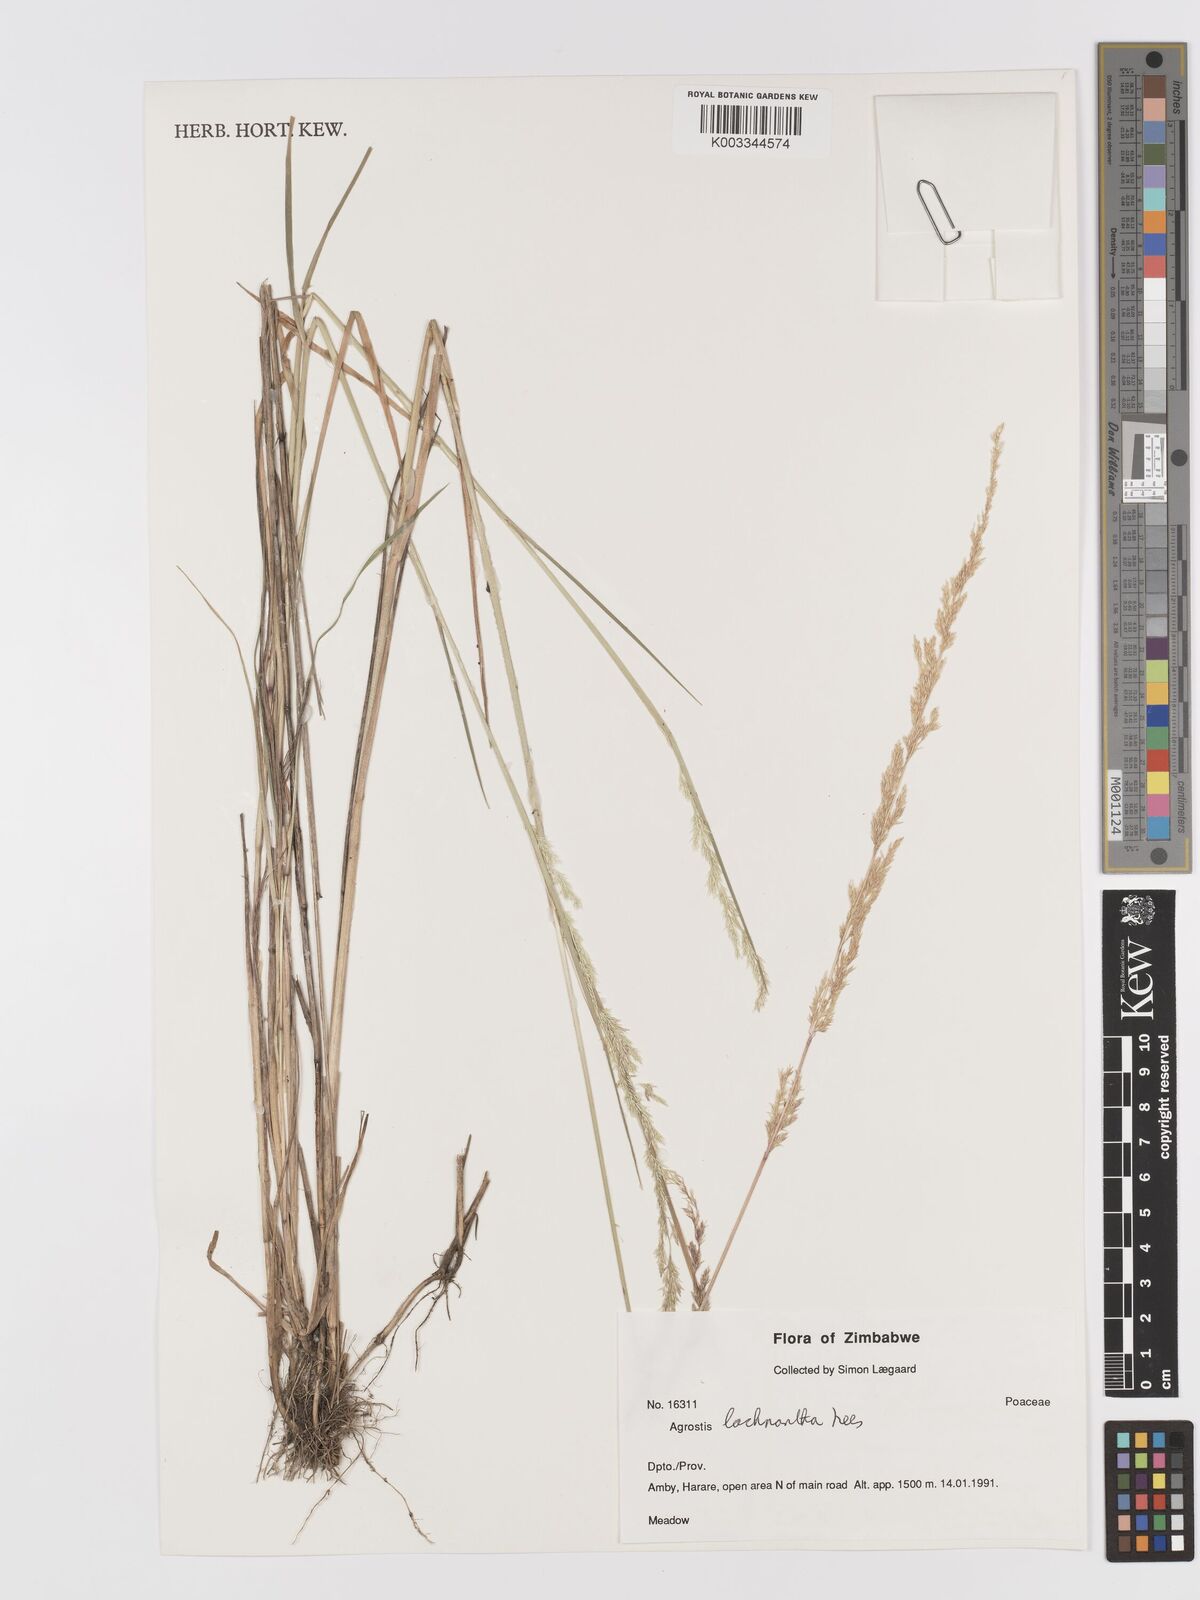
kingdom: Plantae
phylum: Tracheophyta
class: Liliopsida
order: Poales
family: Poaceae
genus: Lachnagrostis
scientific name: Lachnagrostis lachnantha
